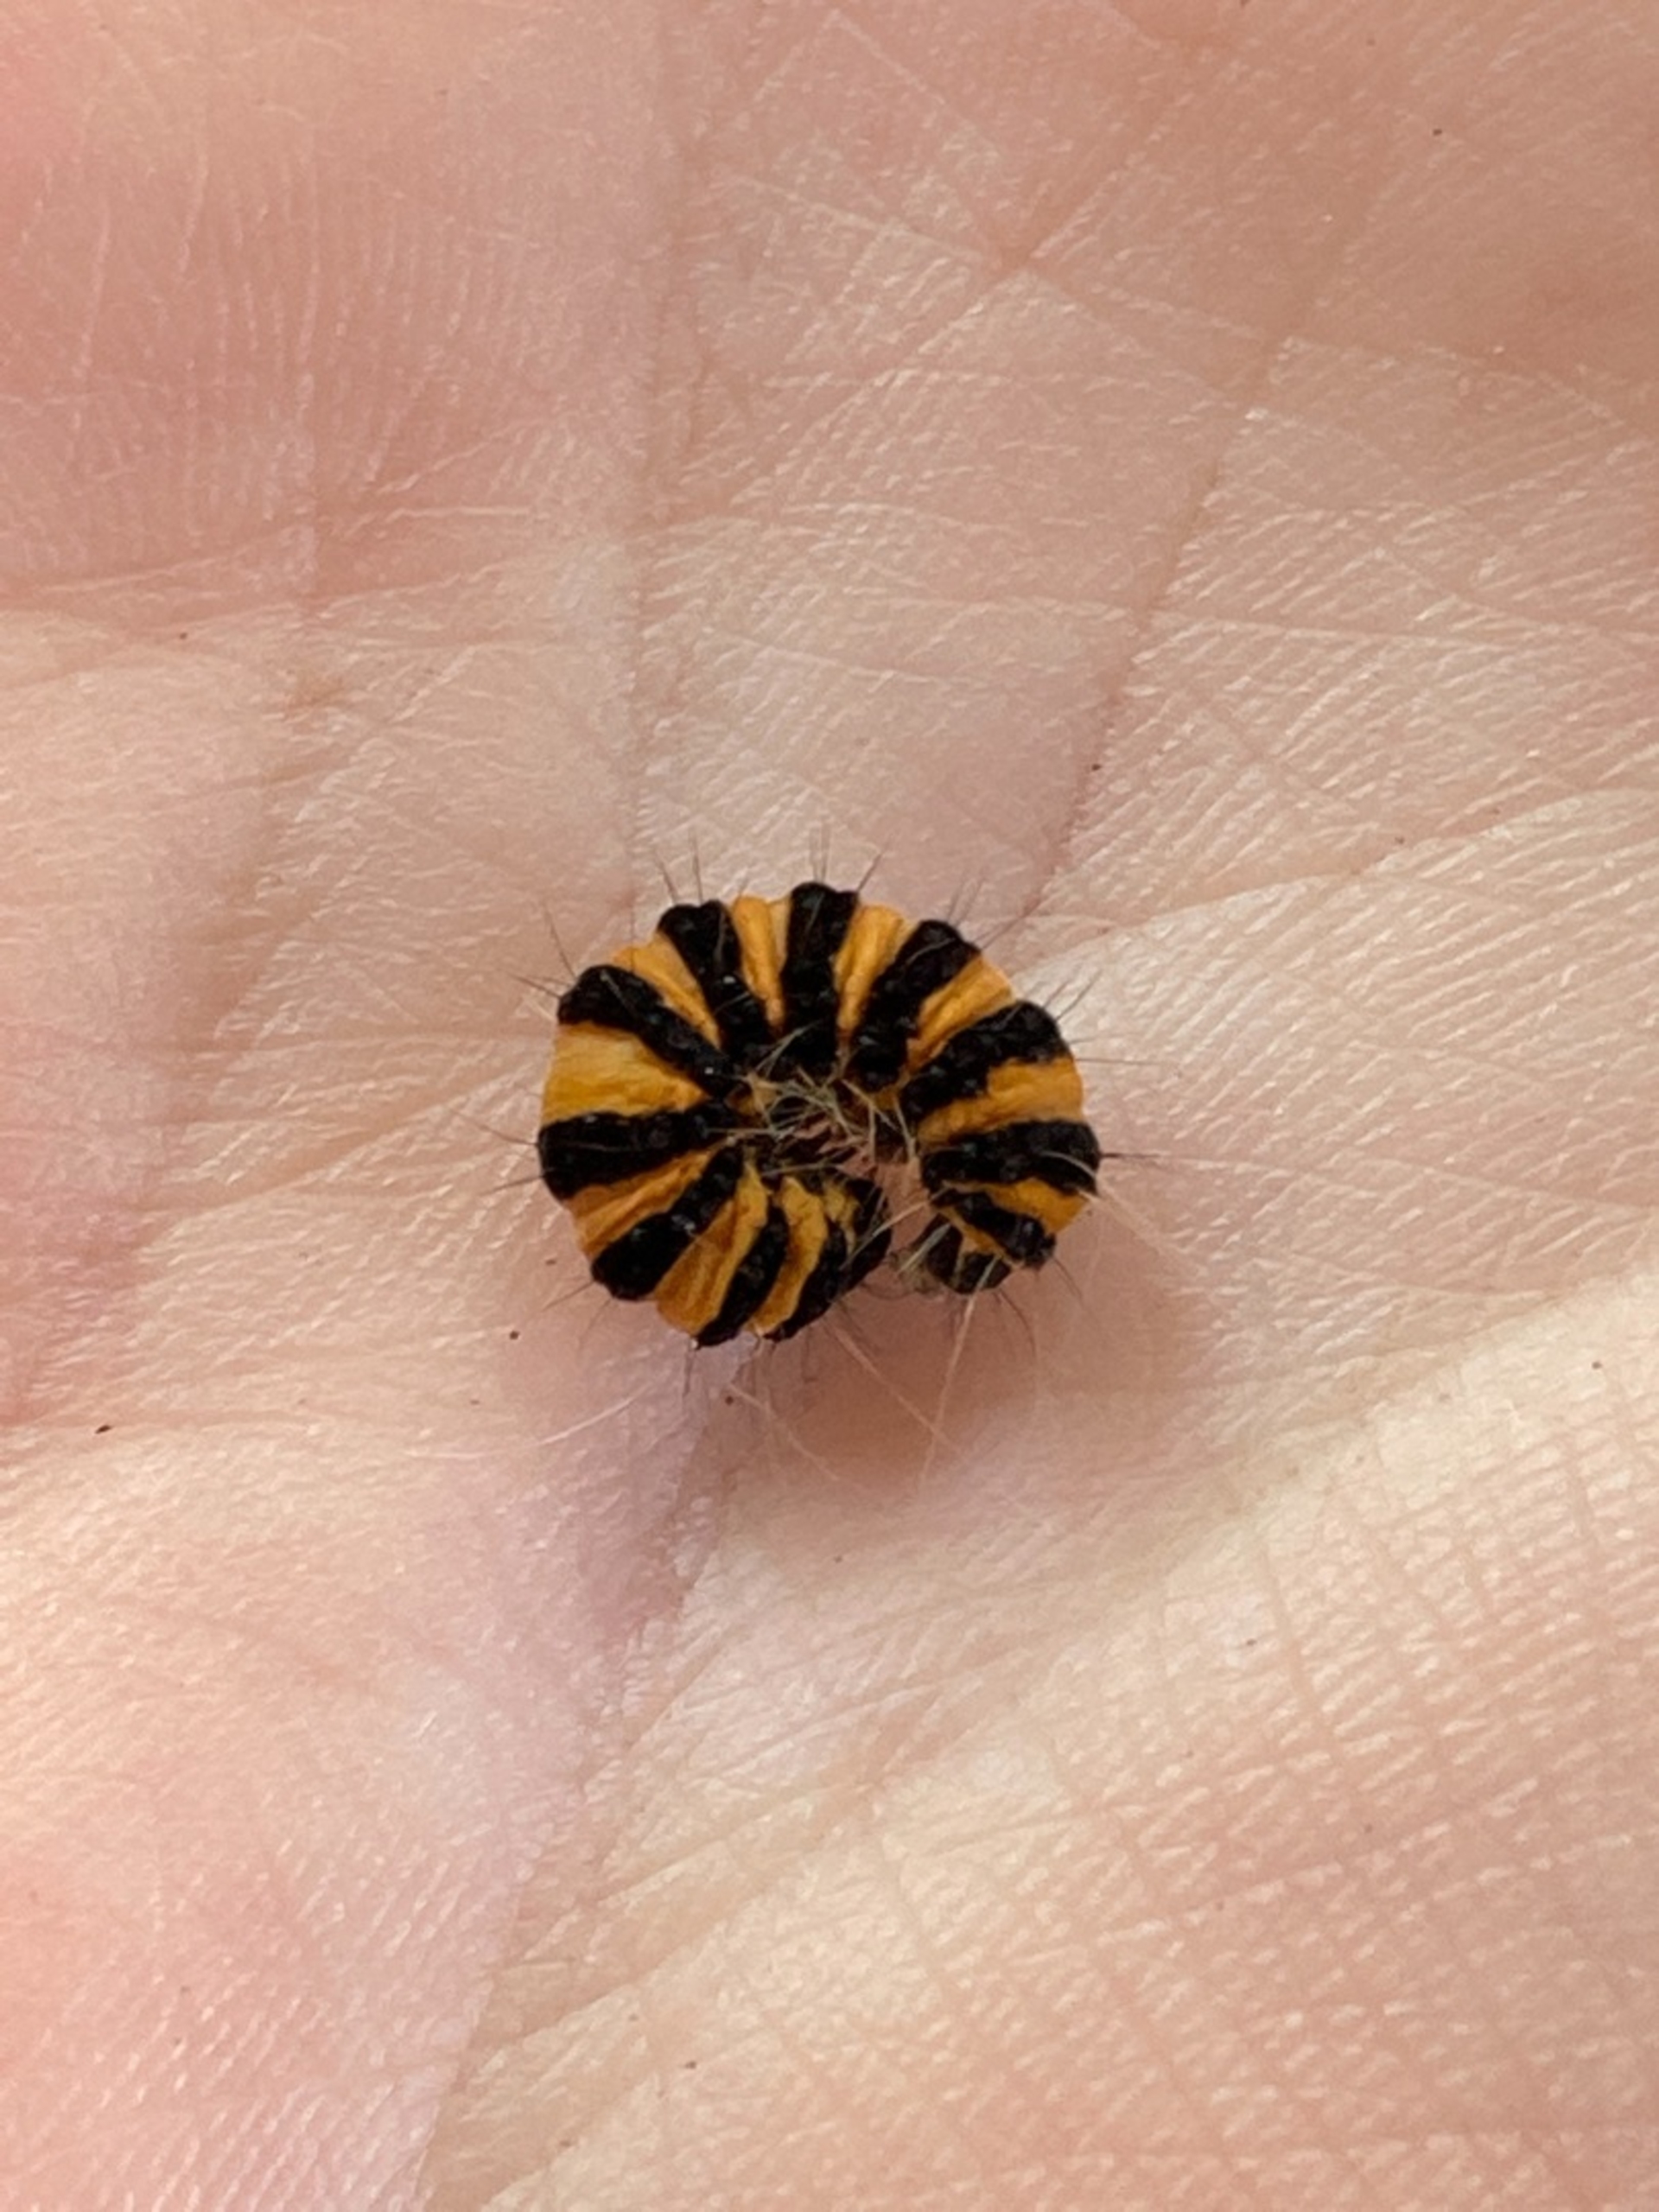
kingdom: Animalia
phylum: Arthropoda
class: Insecta
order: Lepidoptera
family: Erebidae
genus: Tyria
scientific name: Tyria jacobaeae
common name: Blodplet
